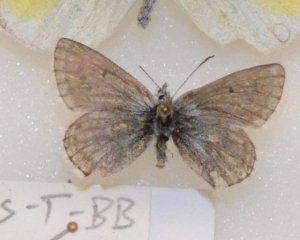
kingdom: Animalia
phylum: Arthropoda
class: Insecta
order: Lepidoptera
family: Lycaenidae
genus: Agriades
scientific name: Agriades glandon
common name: Arctic Blue
